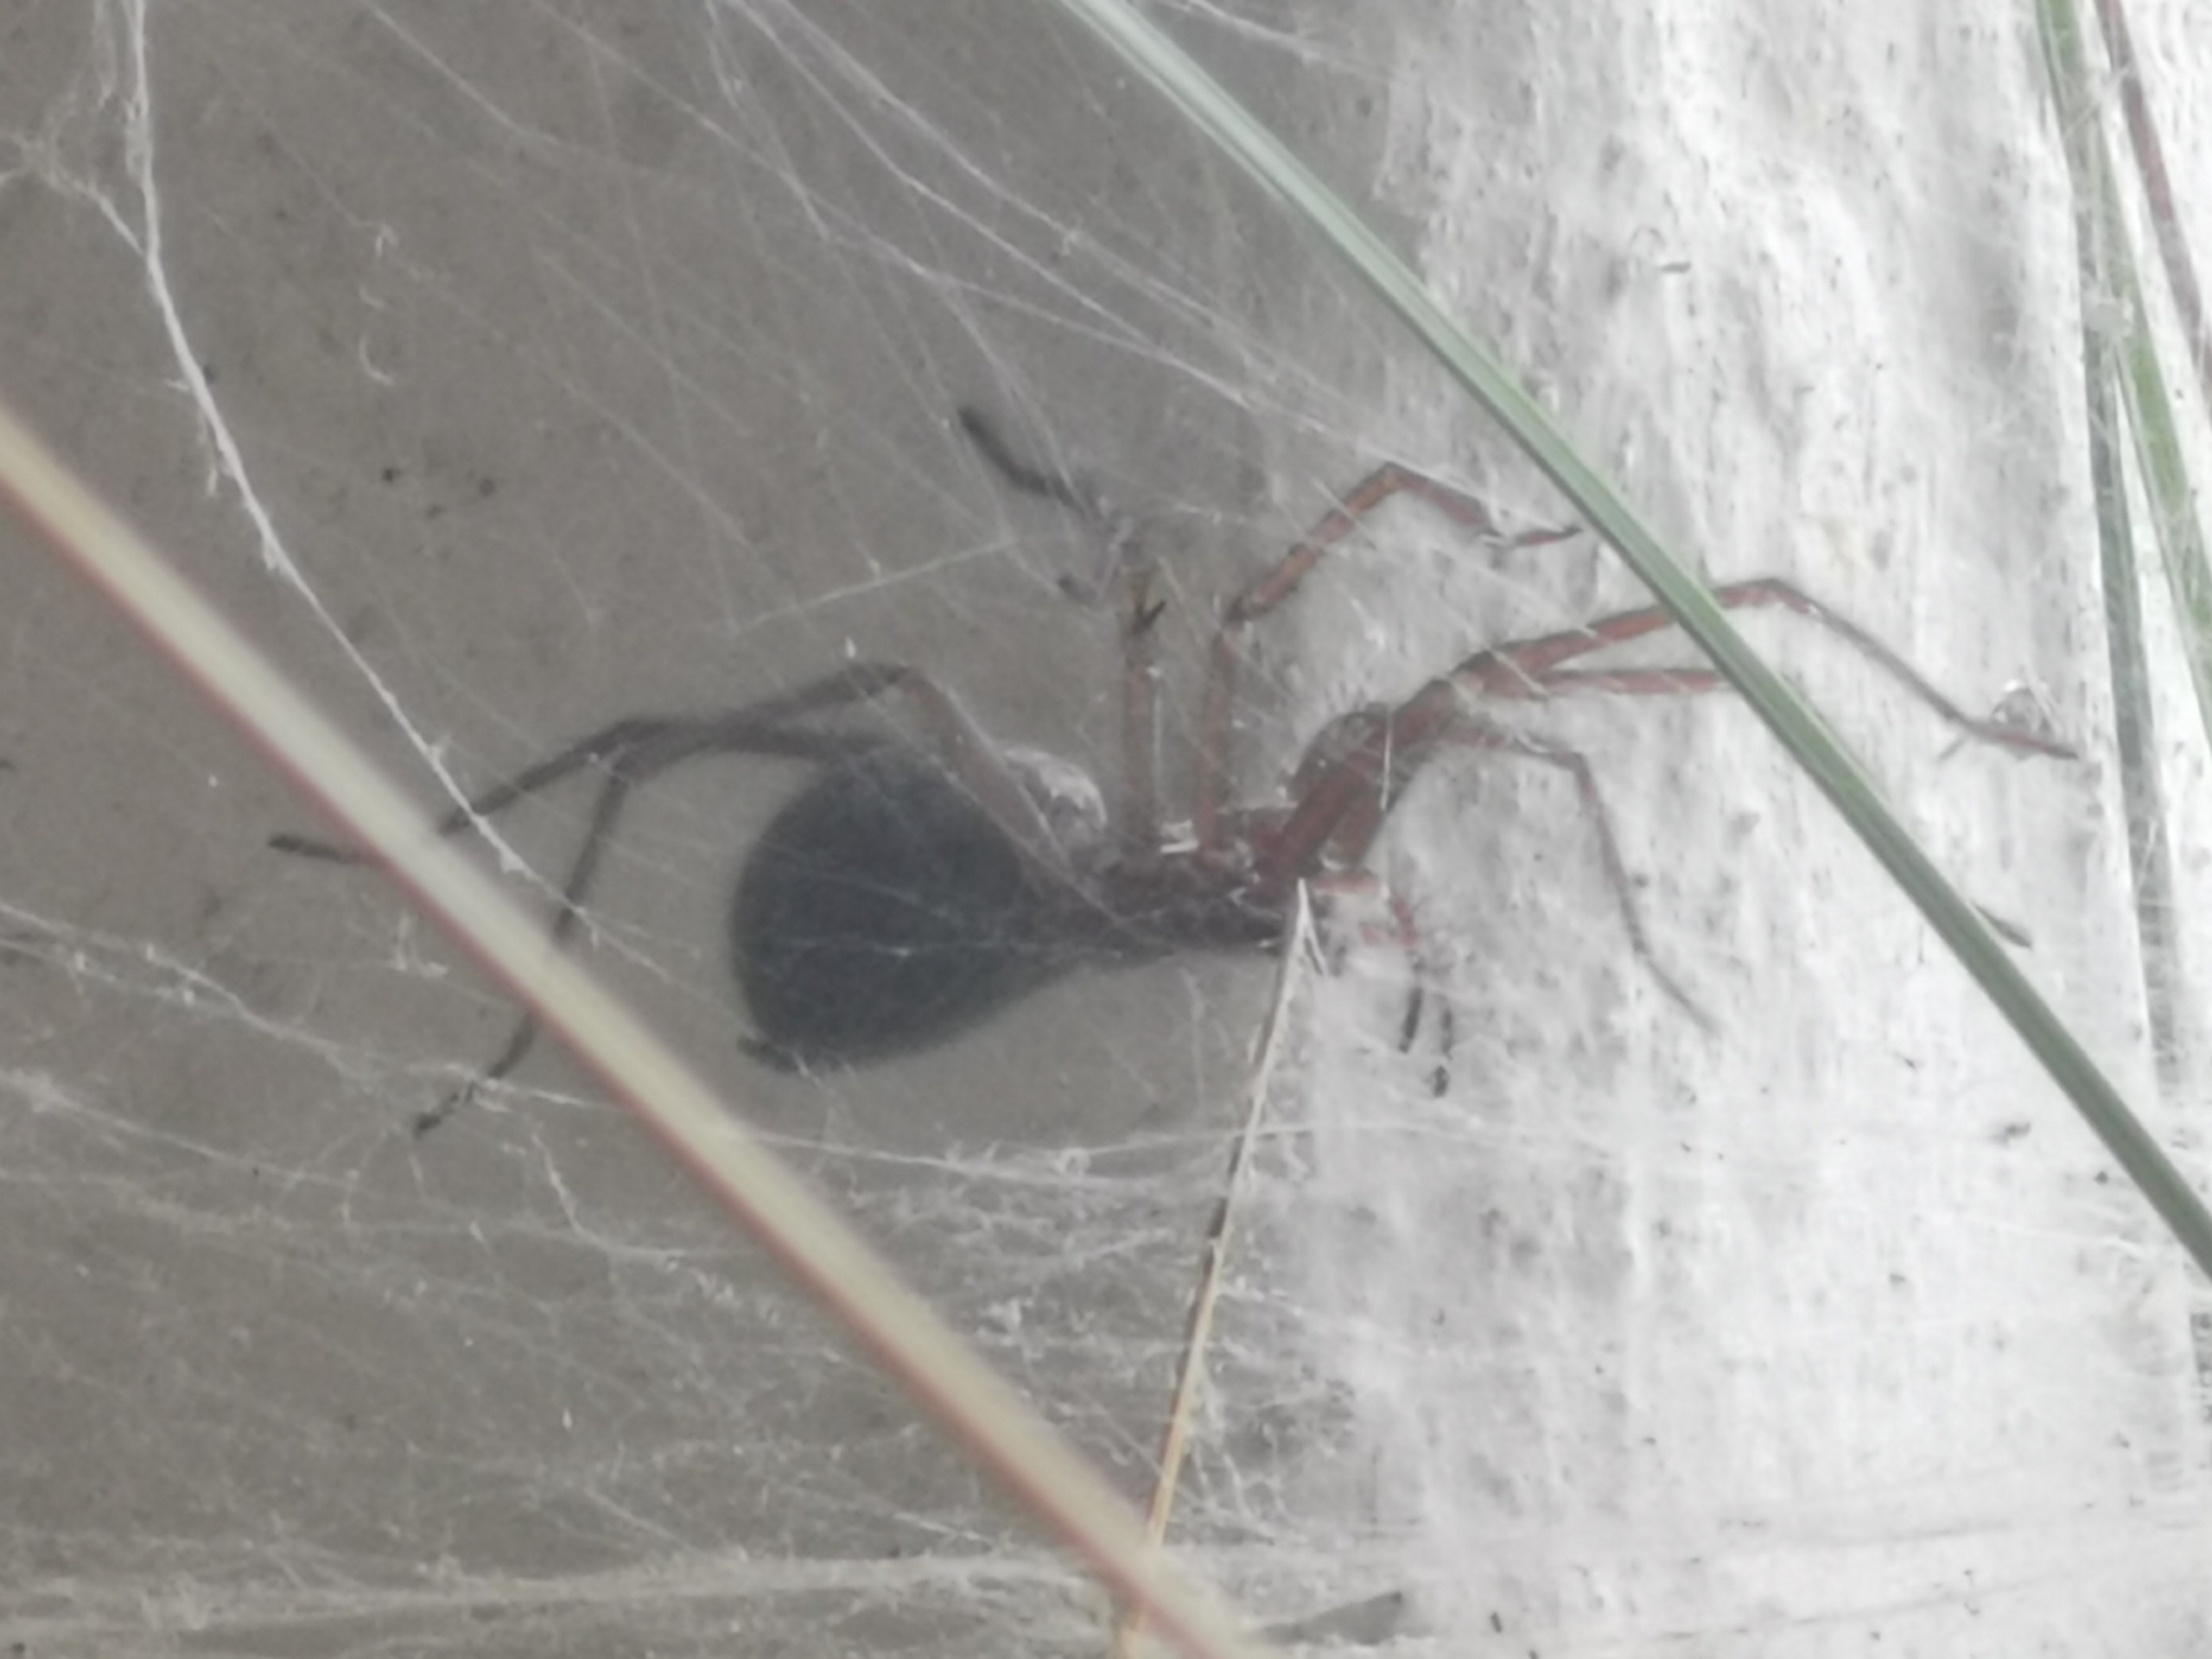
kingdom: Animalia
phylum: Arthropoda
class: Arachnida
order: Araneae
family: Agelenidae
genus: Eratigena
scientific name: Eratigena atrica
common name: Stor husedderkop
